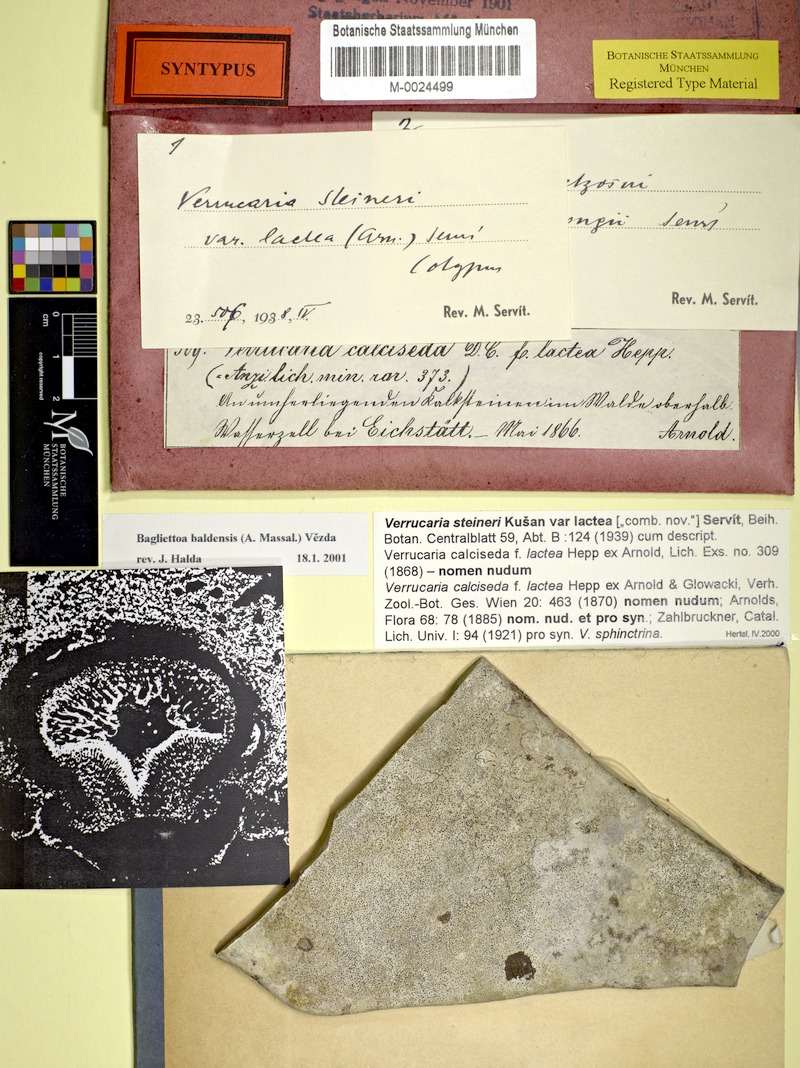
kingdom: Fungi
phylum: Ascomycota
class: Eurotiomycetes
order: Verrucariales
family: Verrucariaceae
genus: Bagliettoa
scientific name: Bagliettoa baldensis
